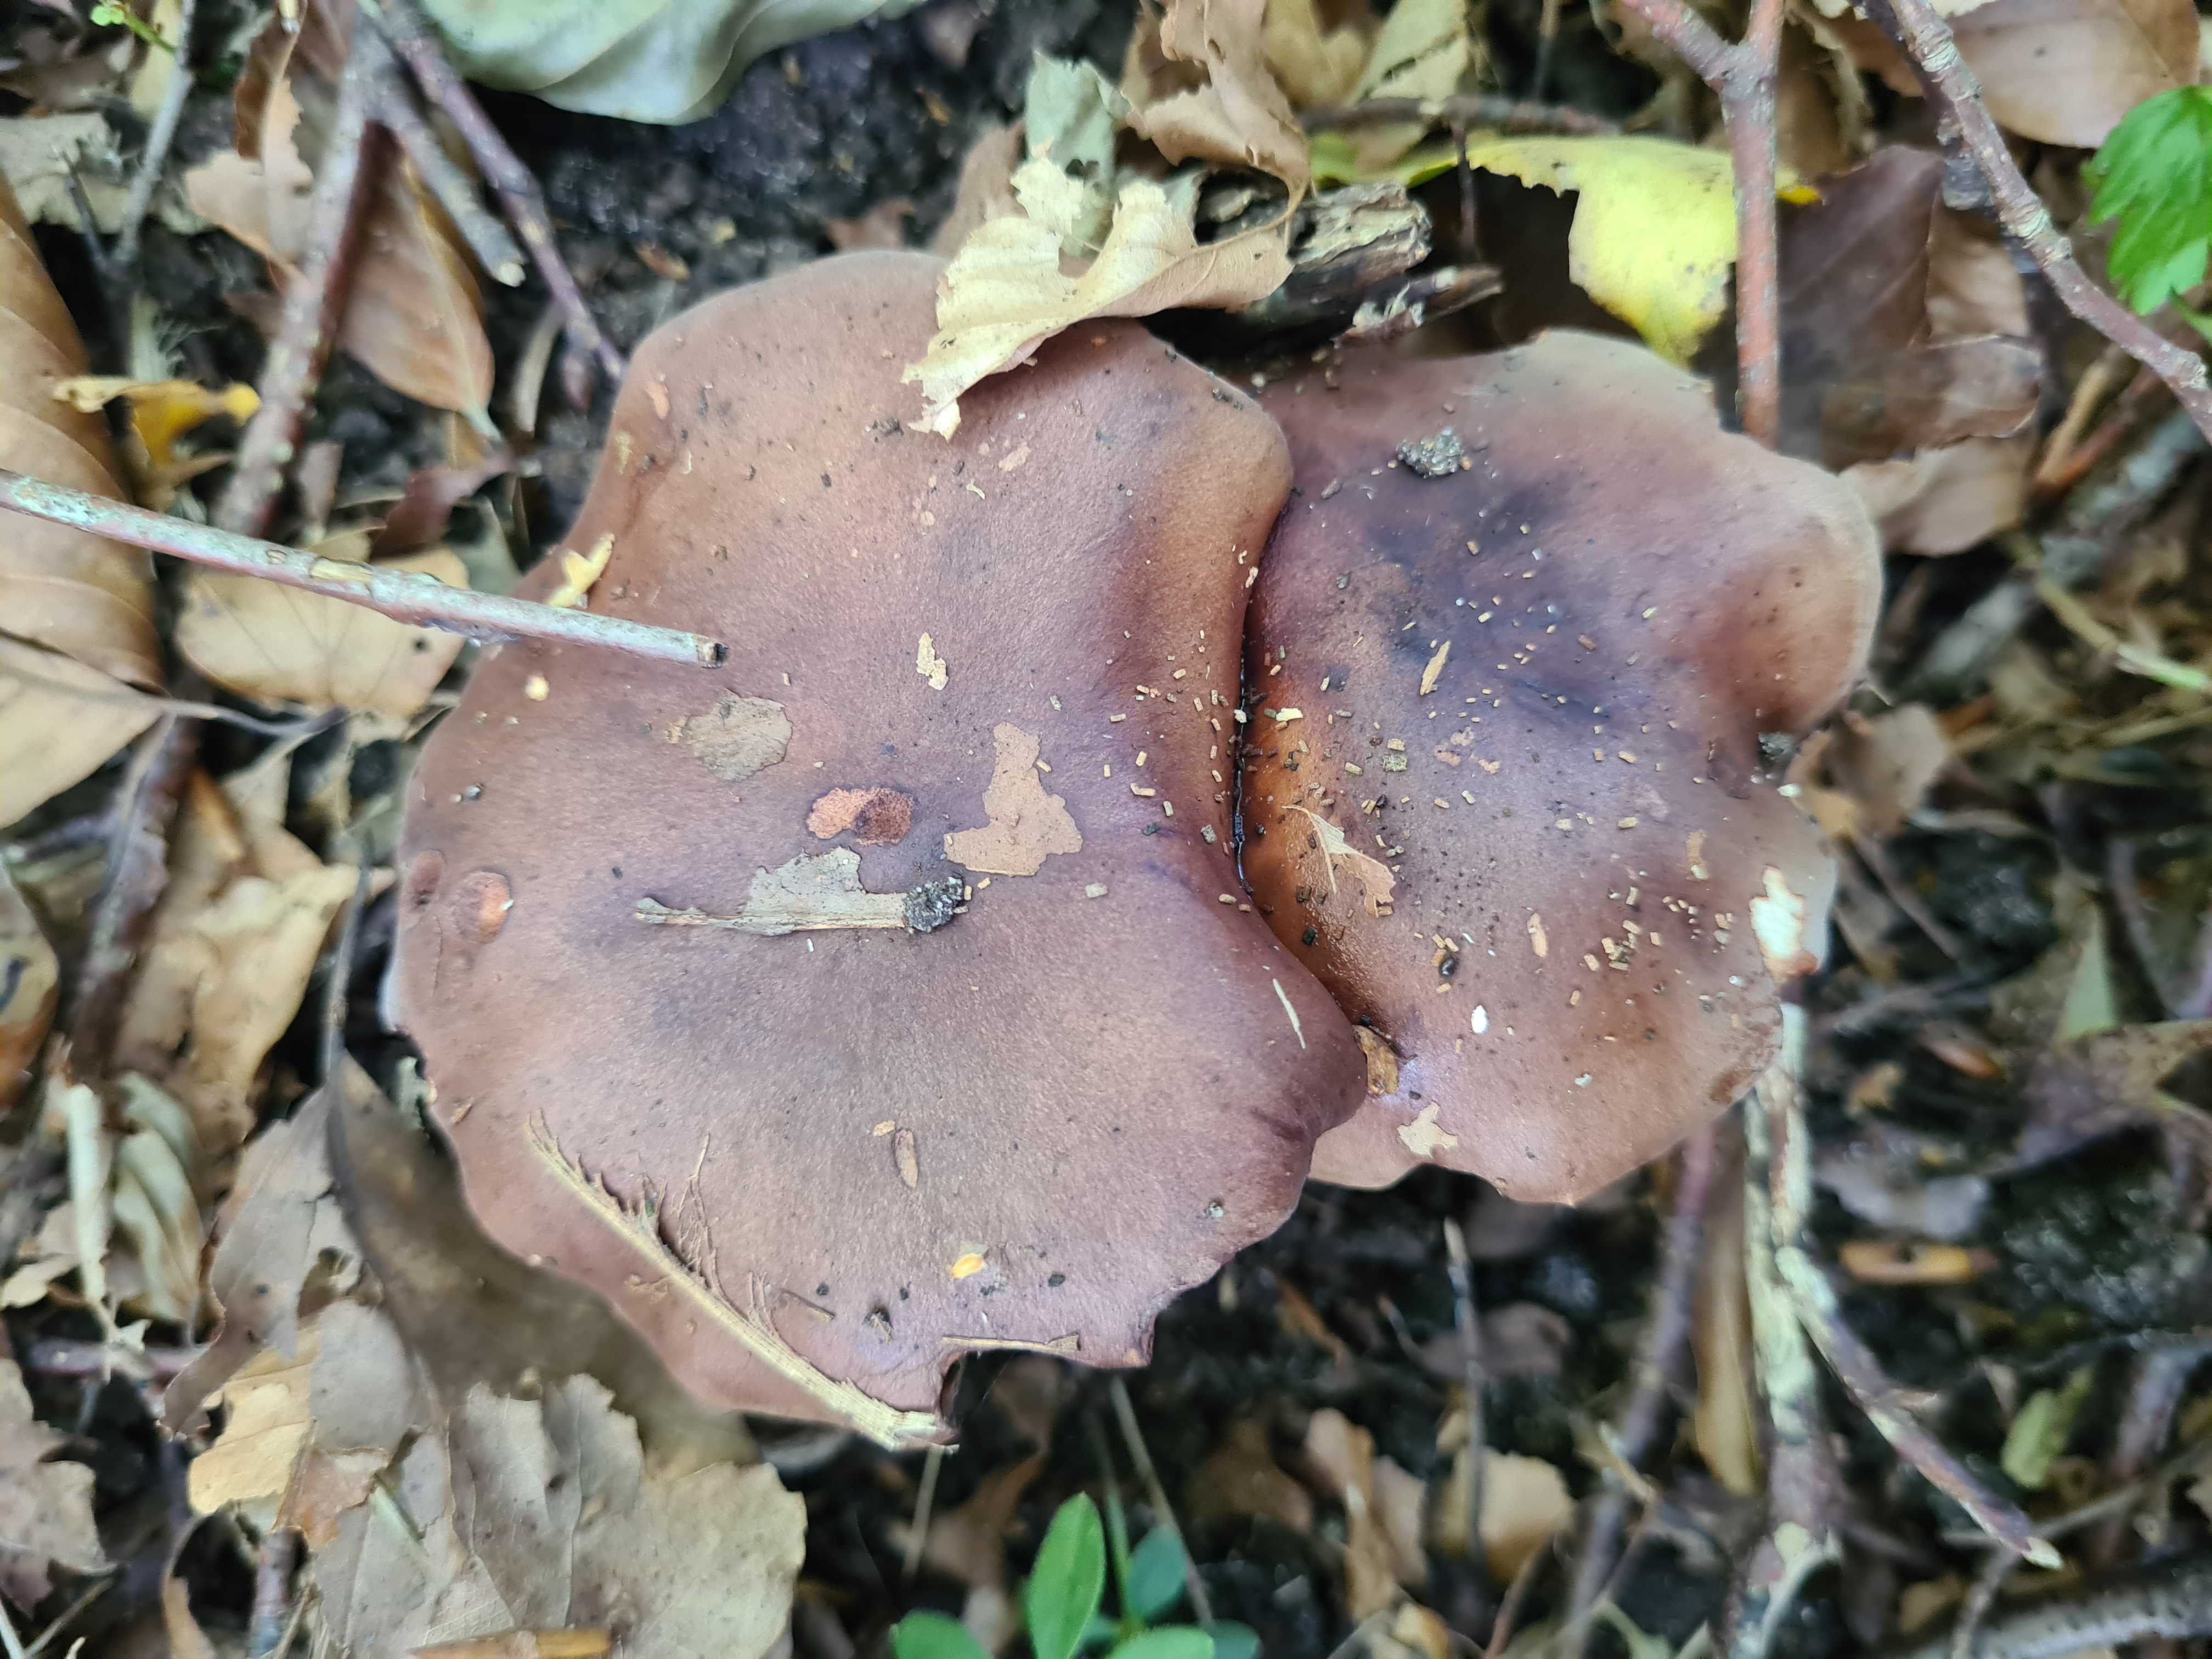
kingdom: Fungi
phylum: Basidiomycota
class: Agaricomycetes
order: Agaricales
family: Tricholomataceae
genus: Tricholoma
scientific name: Tricholoma
